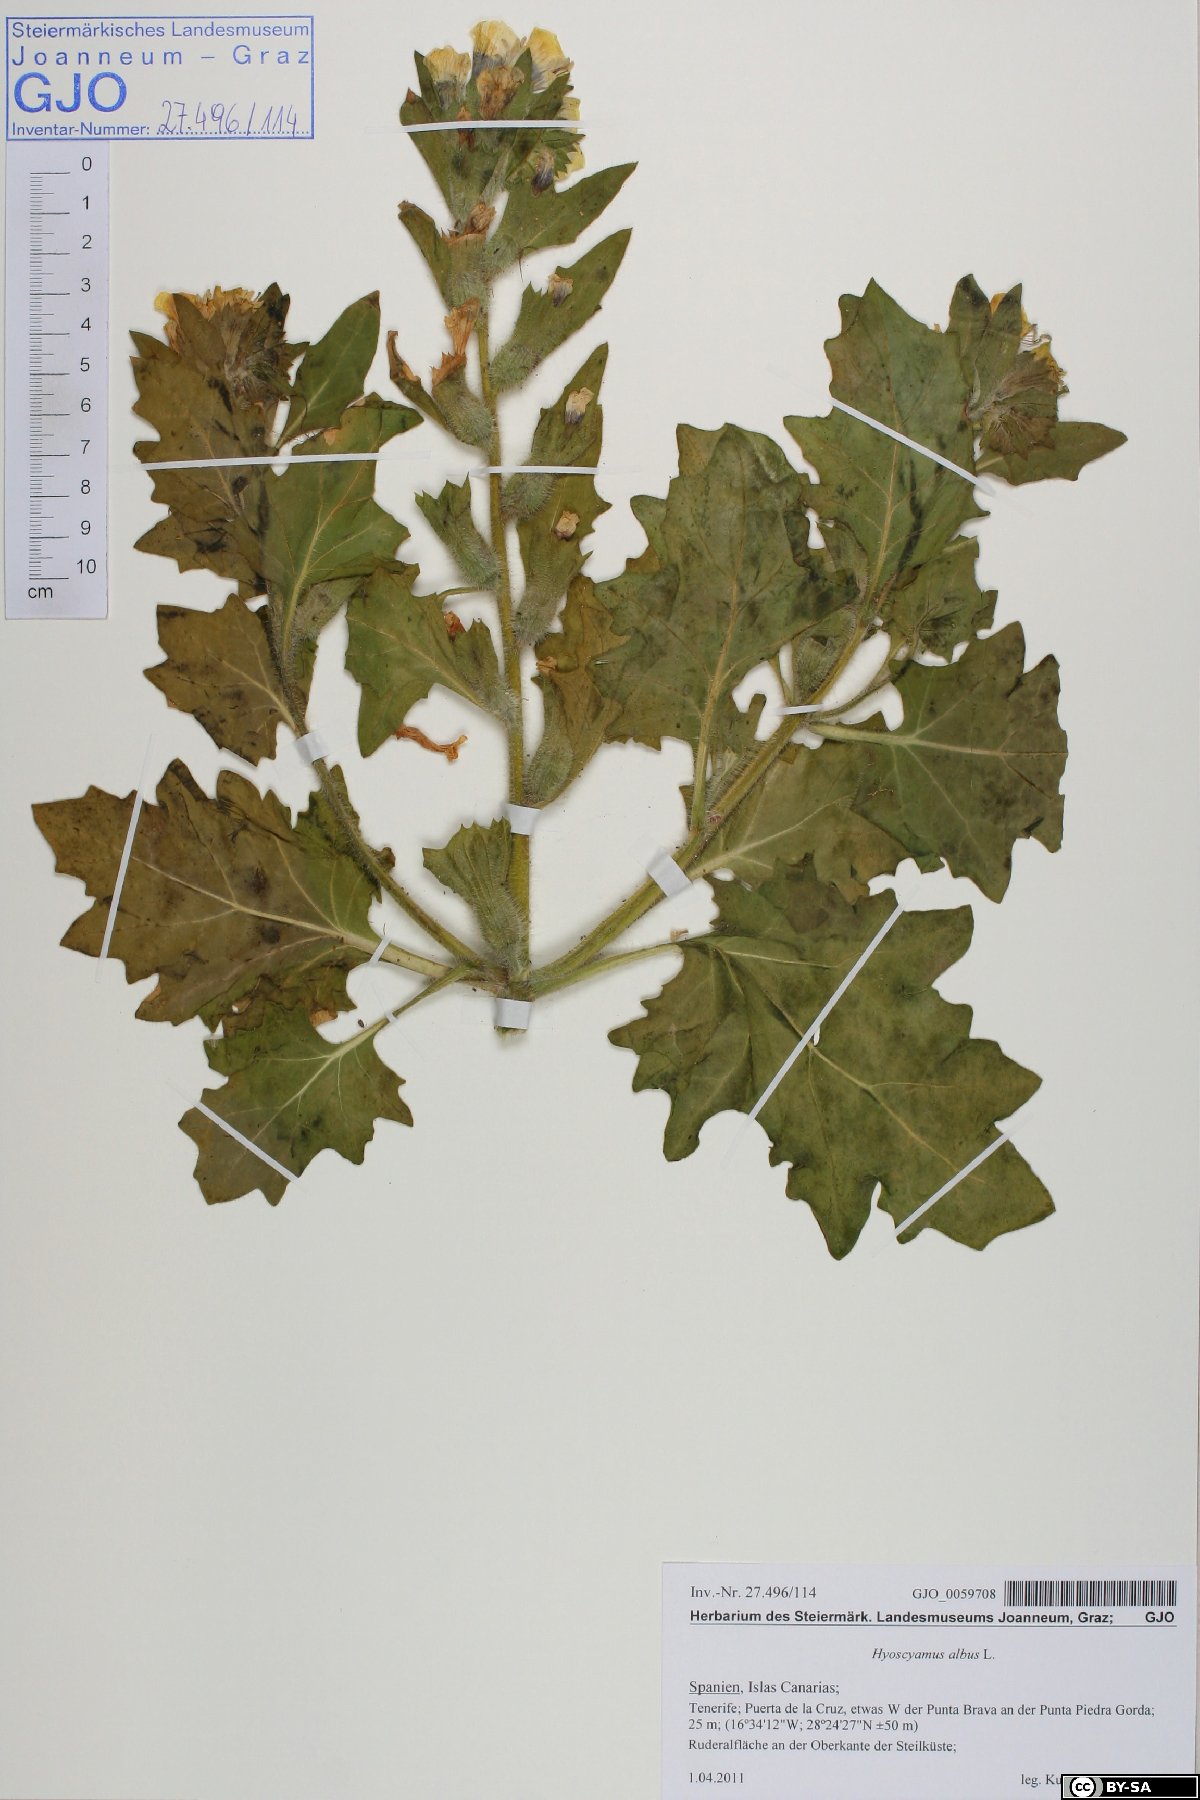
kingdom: Plantae
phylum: Tracheophyta
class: Magnoliopsida
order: Solanales
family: Solanaceae
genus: Hyoscyamus
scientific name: Hyoscyamus albus
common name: White henbane
